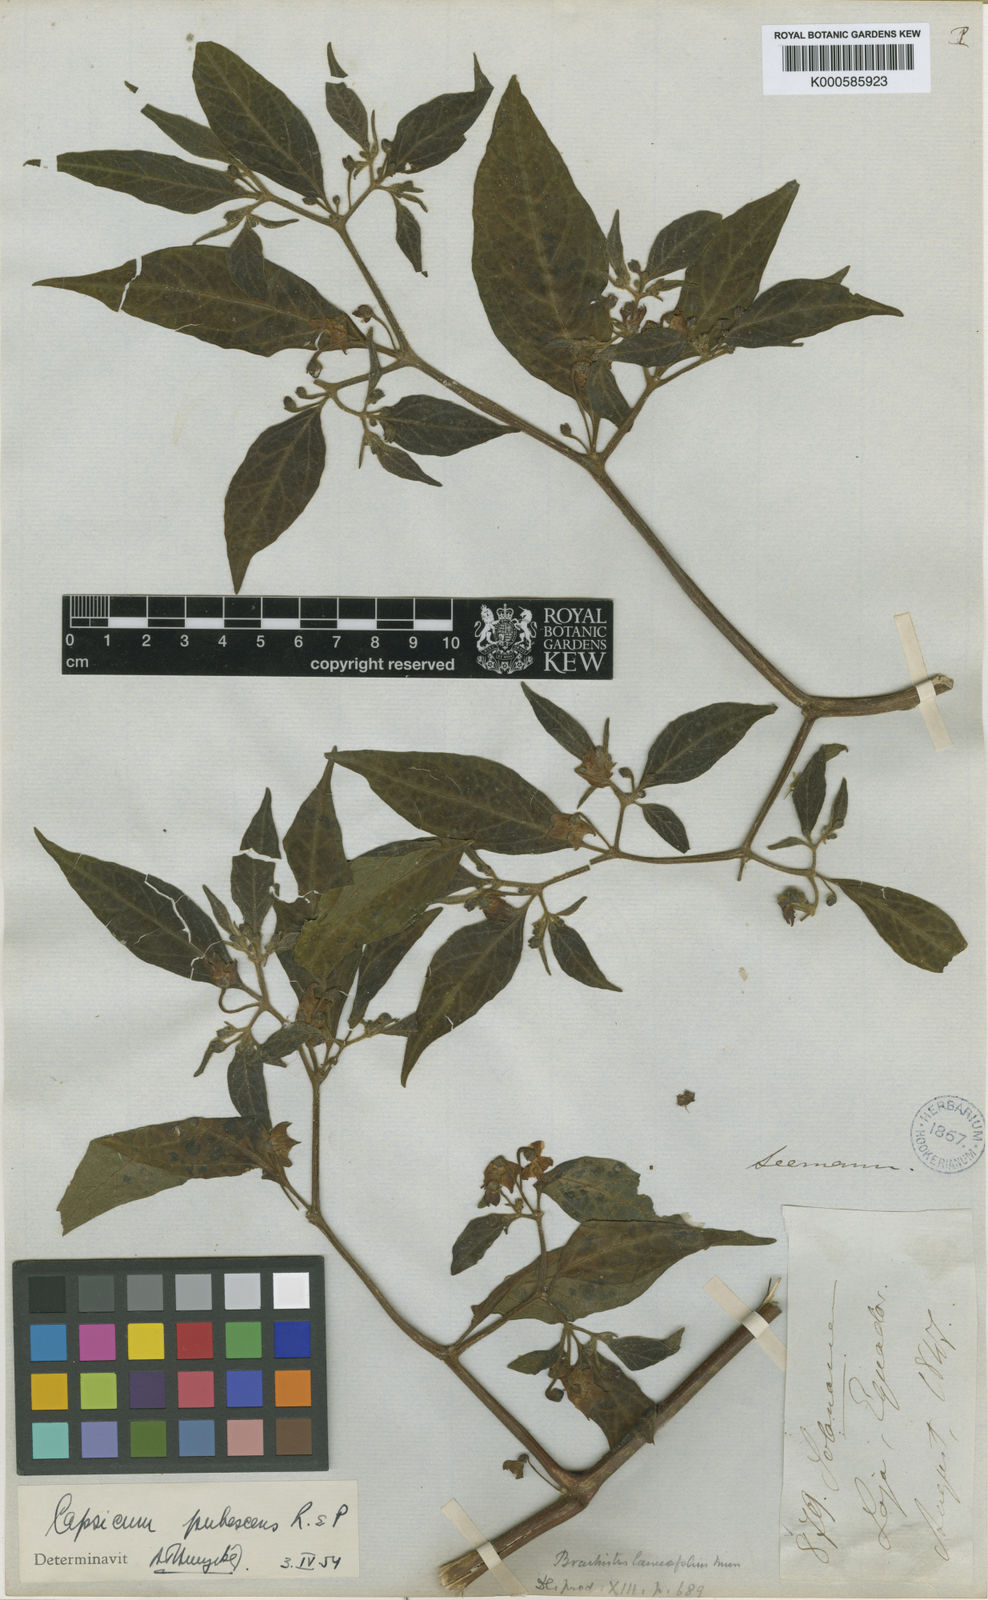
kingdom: Plantae
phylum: Tracheophyta
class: Magnoliopsida
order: Solanales
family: Solanaceae
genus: Capsicum
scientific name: Capsicum pubescens
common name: Apple chile
